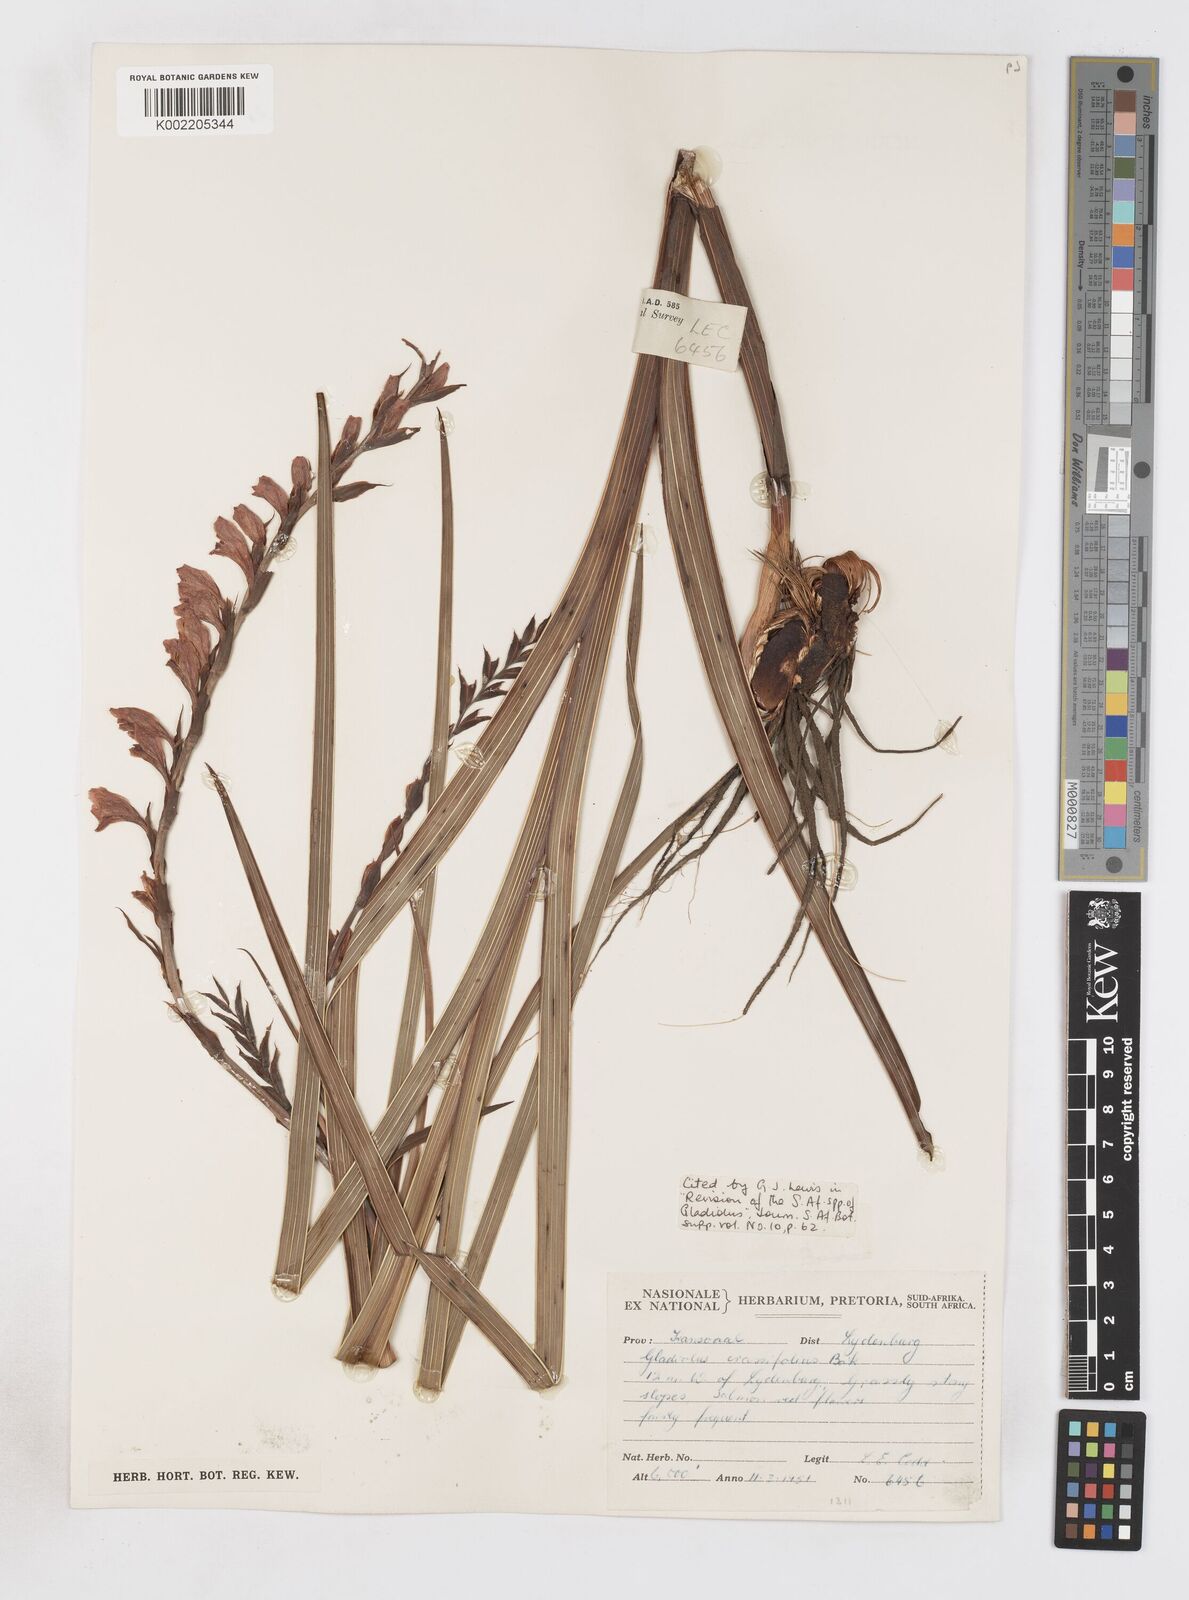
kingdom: Plantae
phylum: Tracheophyta
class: Liliopsida
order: Asparagales
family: Iridaceae
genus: Gladiolus
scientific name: Gladiolus crassifolius
